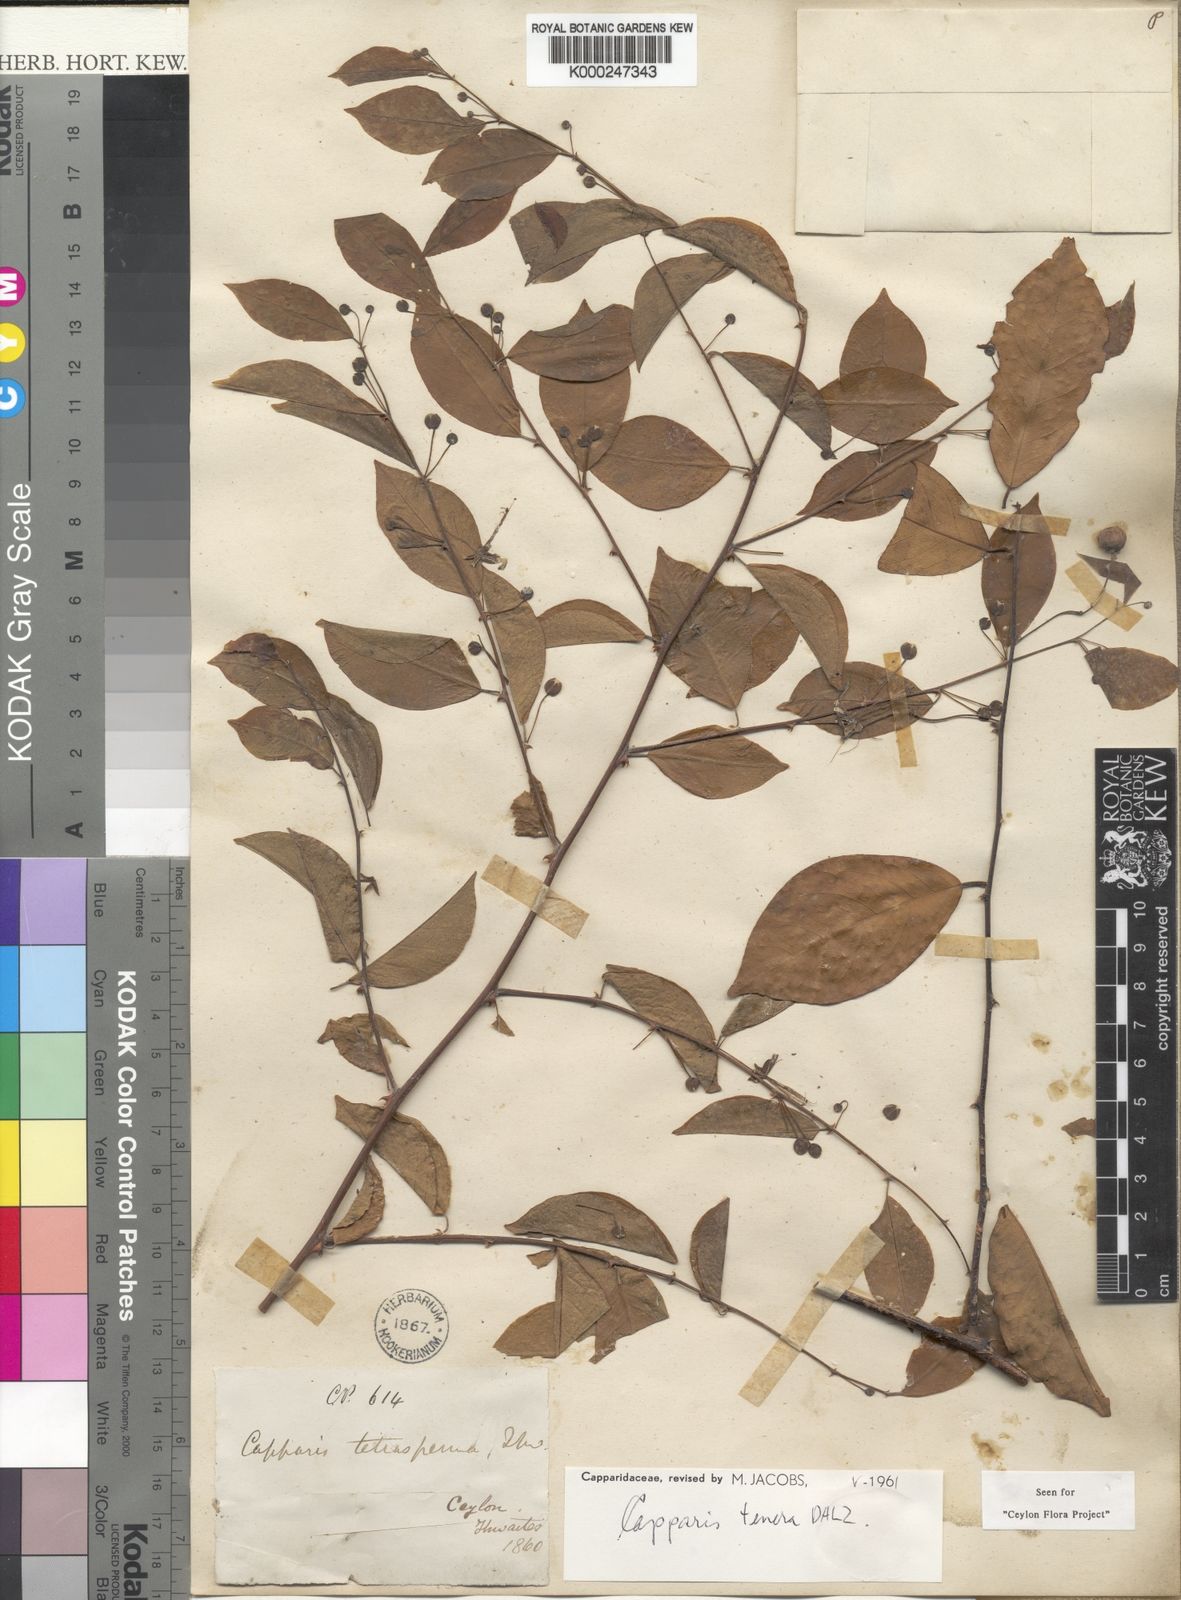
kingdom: Plantae
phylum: Tracheophyta
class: Magnoliopsida
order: Brassicales
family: Capparaceae
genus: Capparis
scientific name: Capparis tenera
